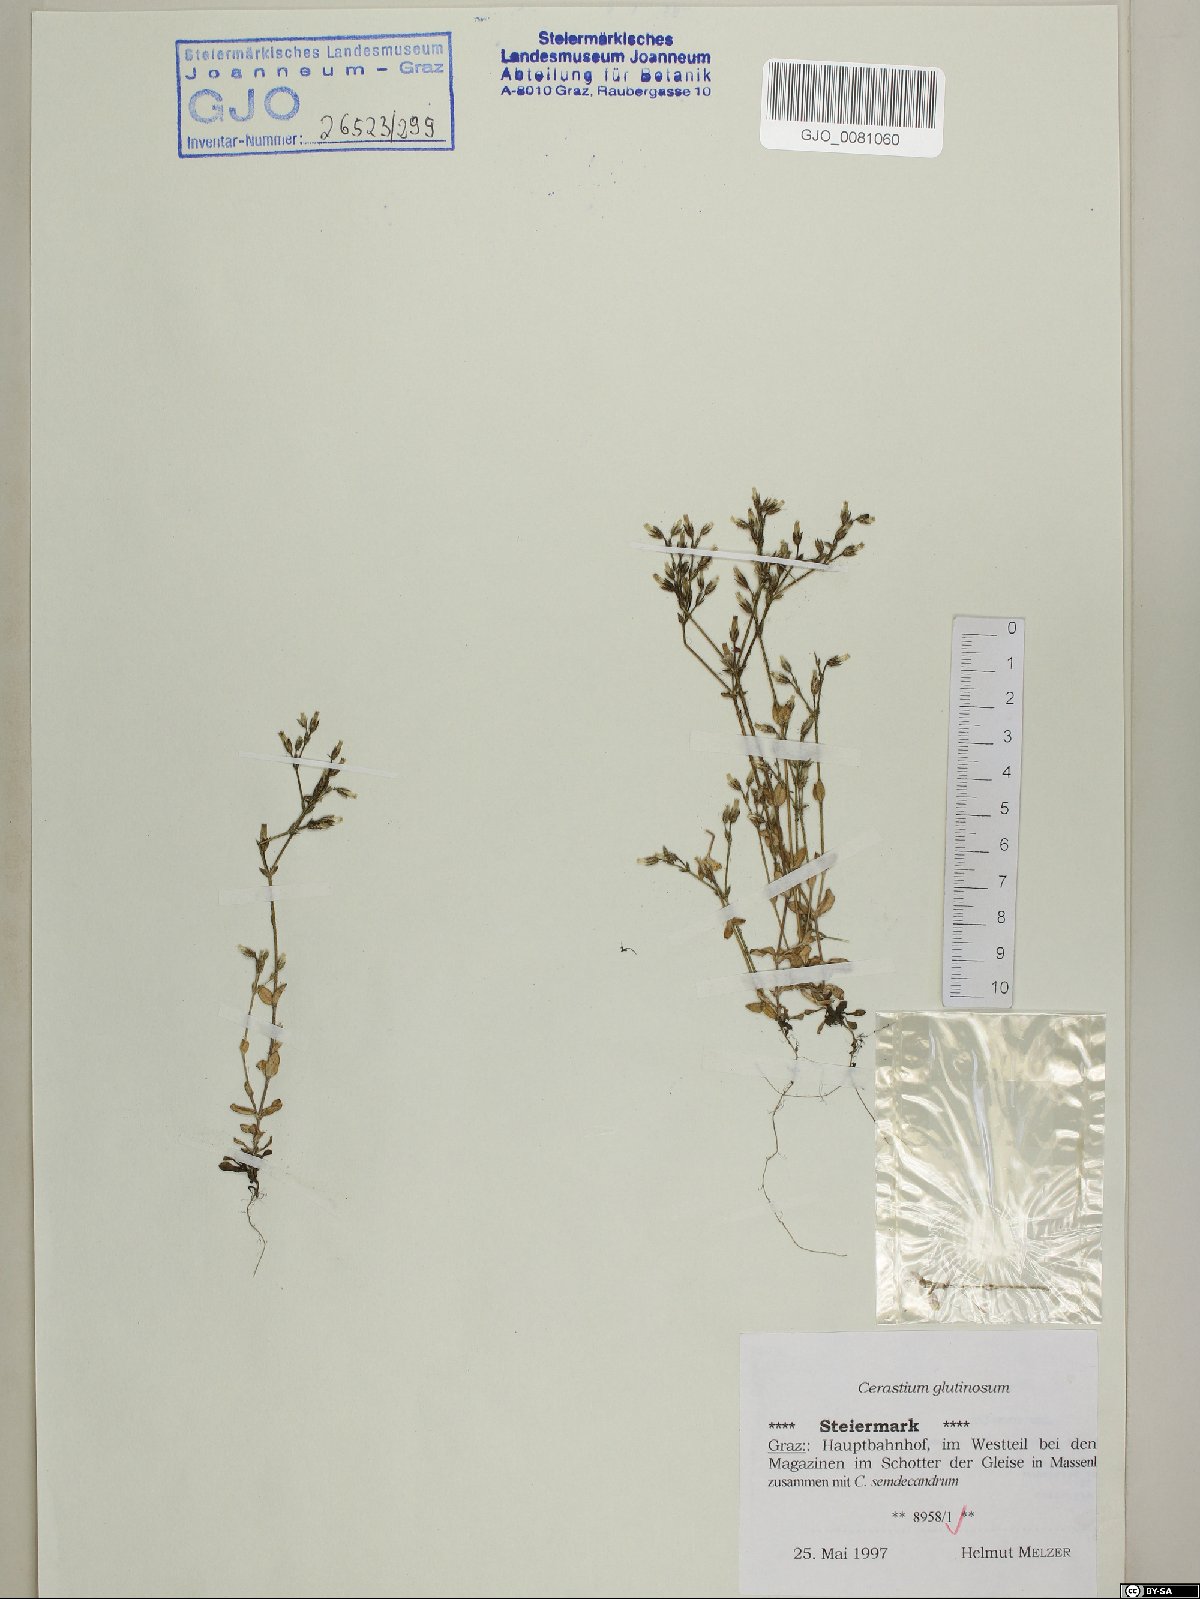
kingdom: Plantae
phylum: Tracheophyta
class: Magnoliopsida
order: Caryophyllales
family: Caryophyllaceae
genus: Cerastium
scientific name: Cerastium glutinosum
